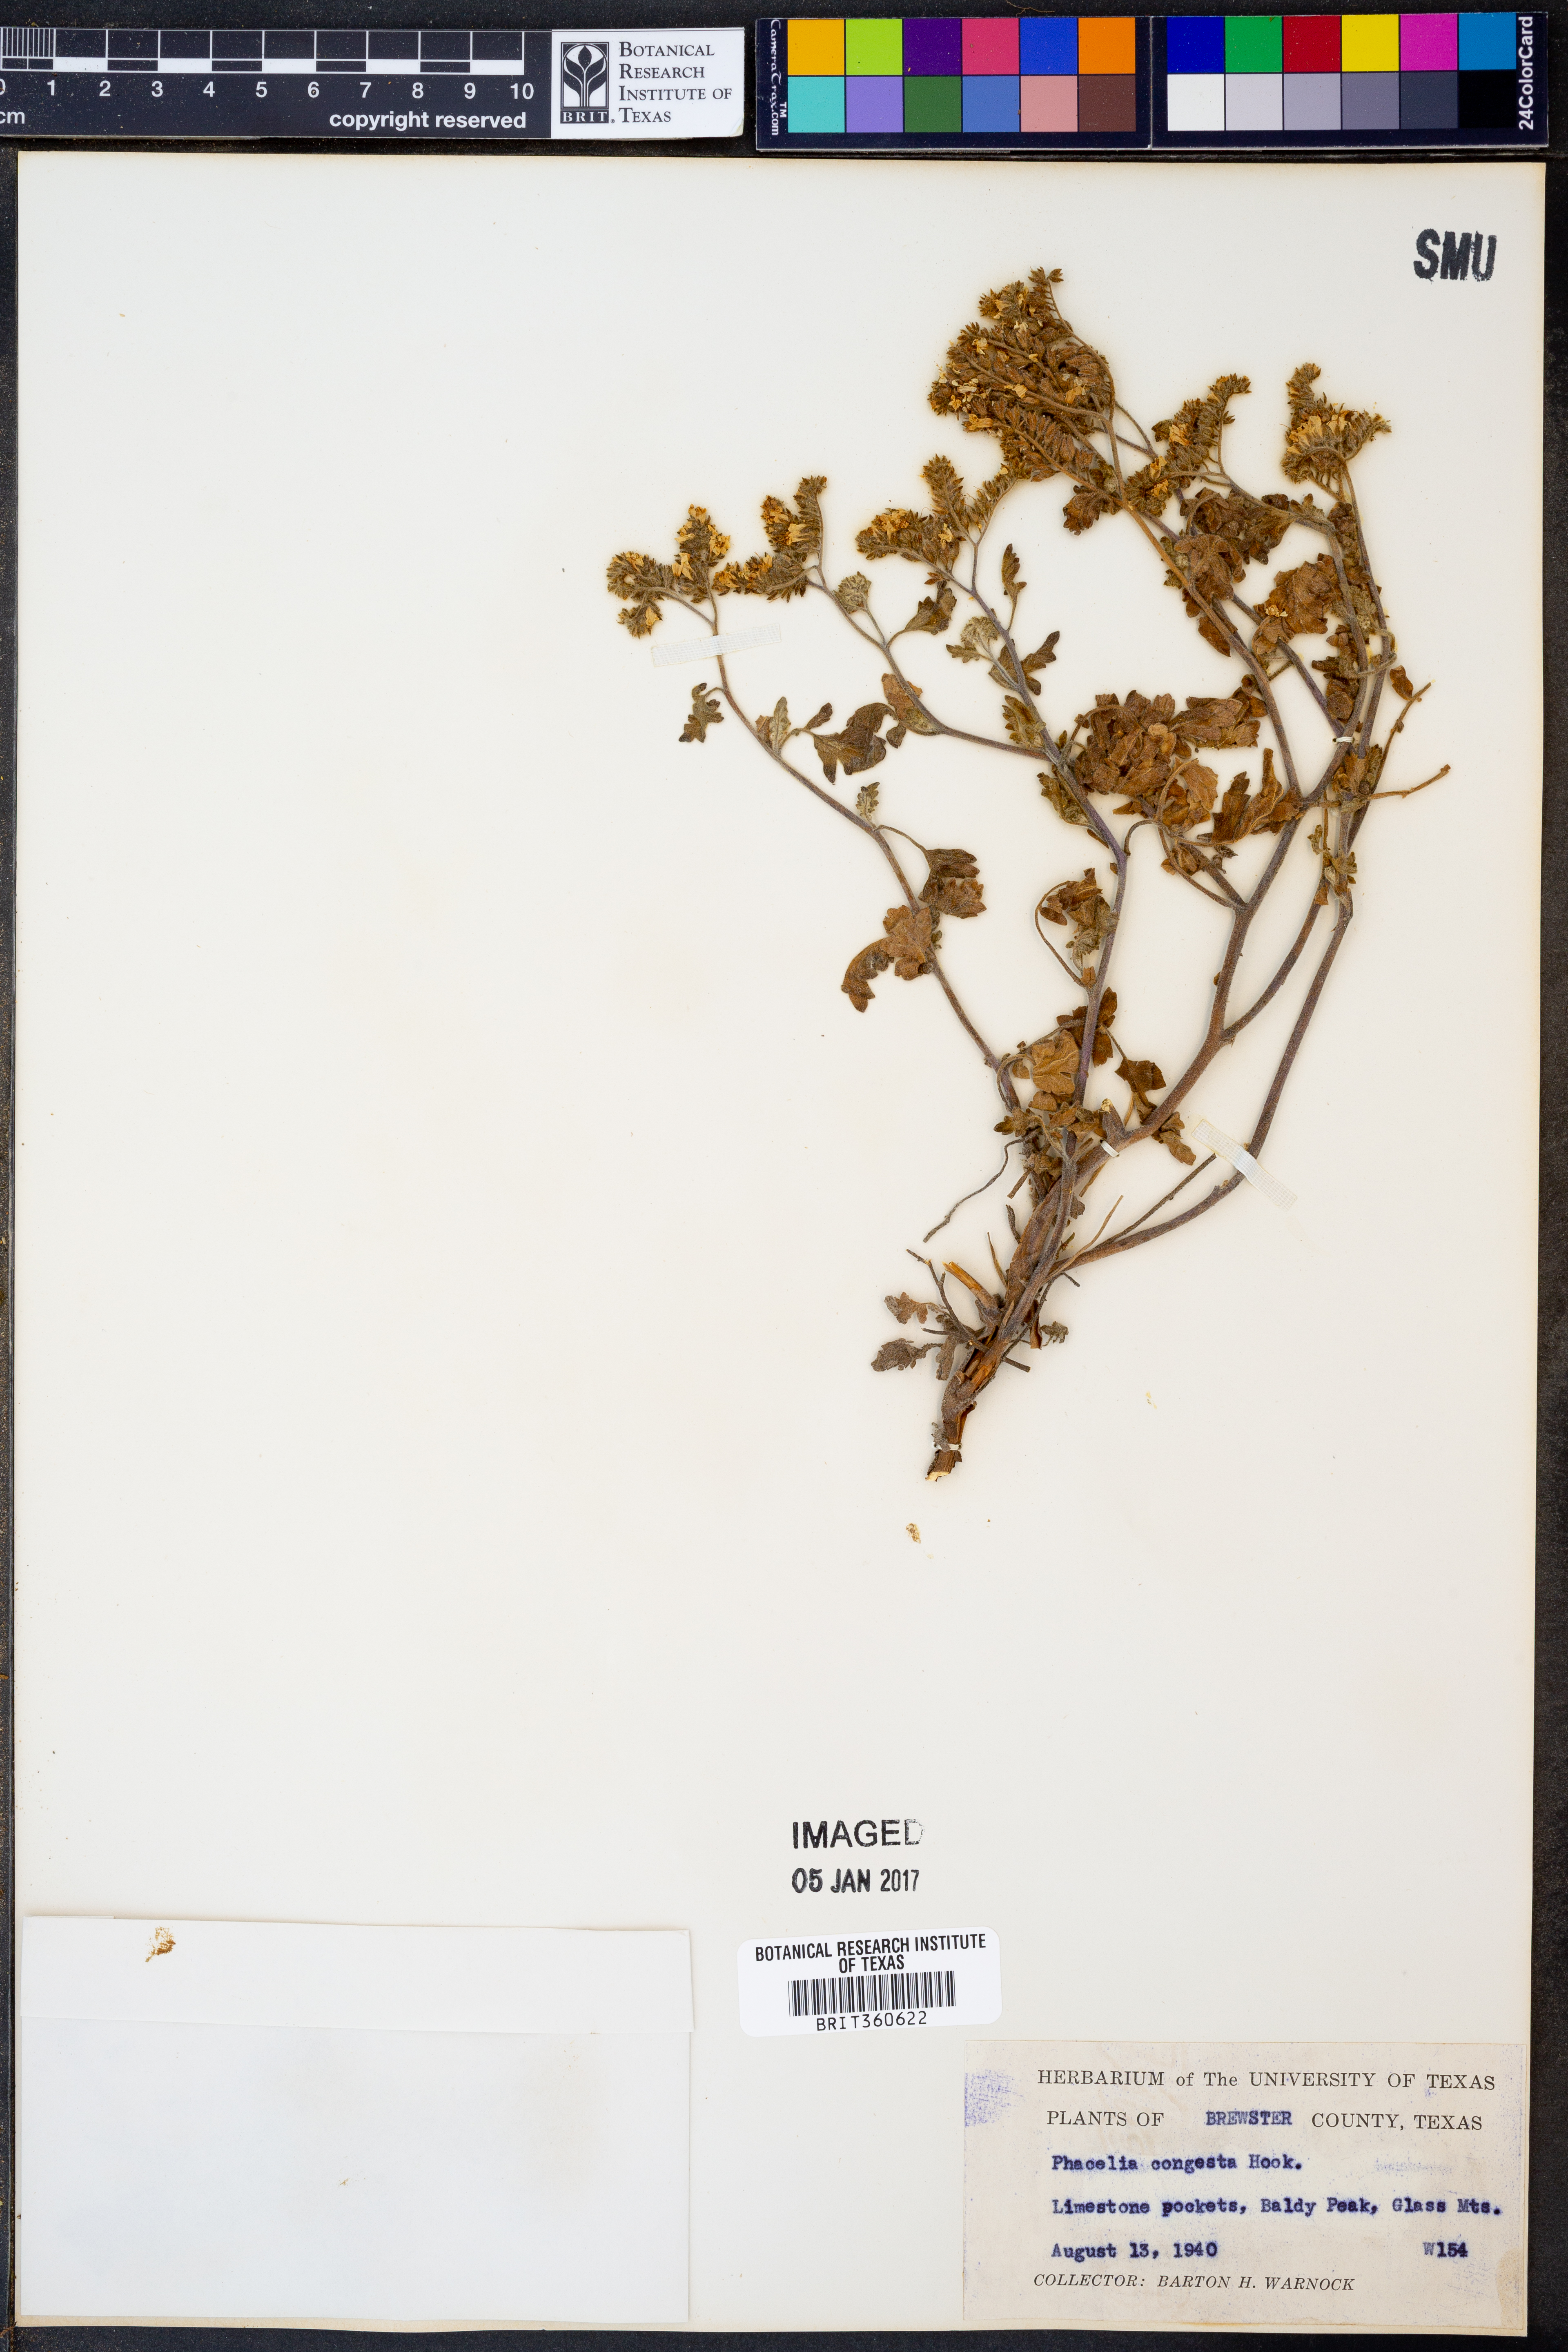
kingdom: Plantae
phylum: Tracheophyta
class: Magnoliopsida
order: Boraginales
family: Hydrophyllaceae
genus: Phacelia
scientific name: Phacelia congesta
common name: Blue curls
